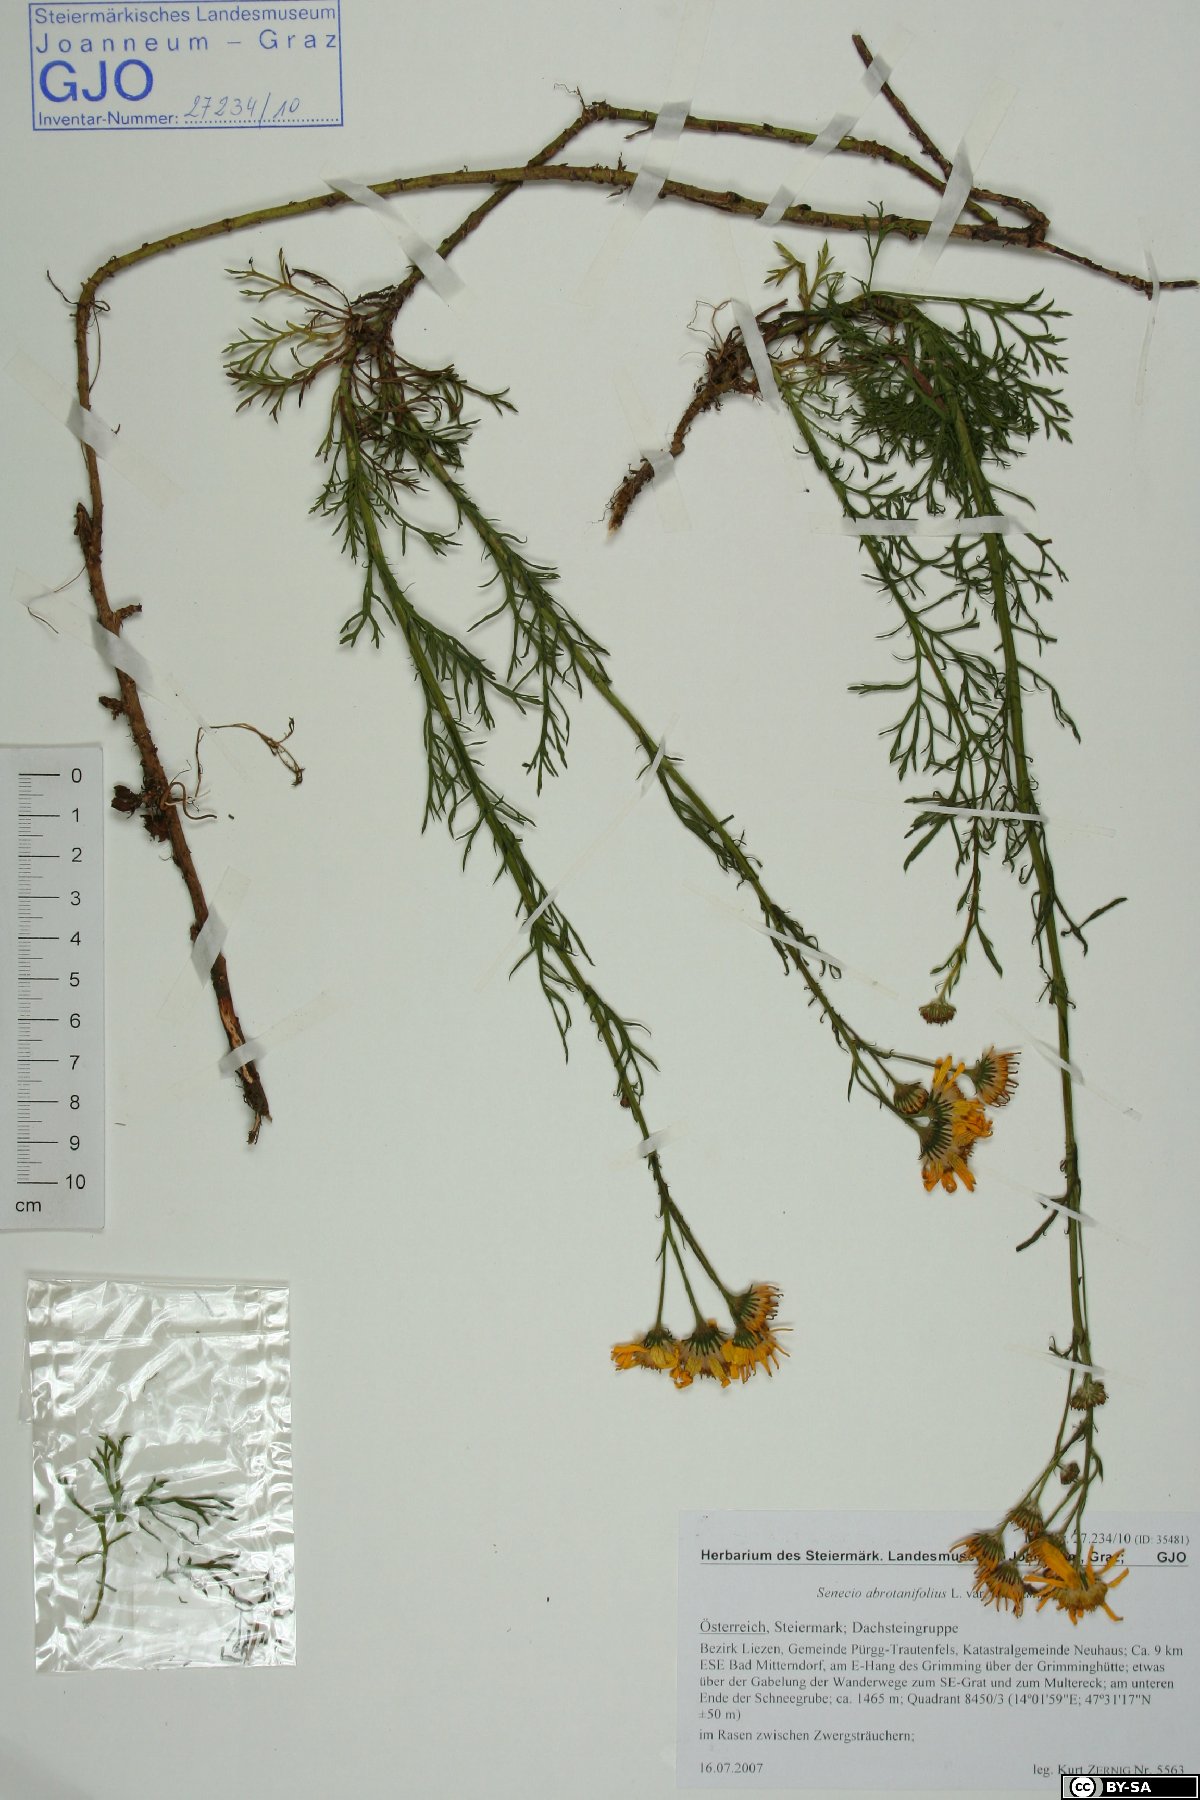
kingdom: Plantae
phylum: Tracheophyta
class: Magnoliopsida
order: Asterales
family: Asteraceae
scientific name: Asteraceae
